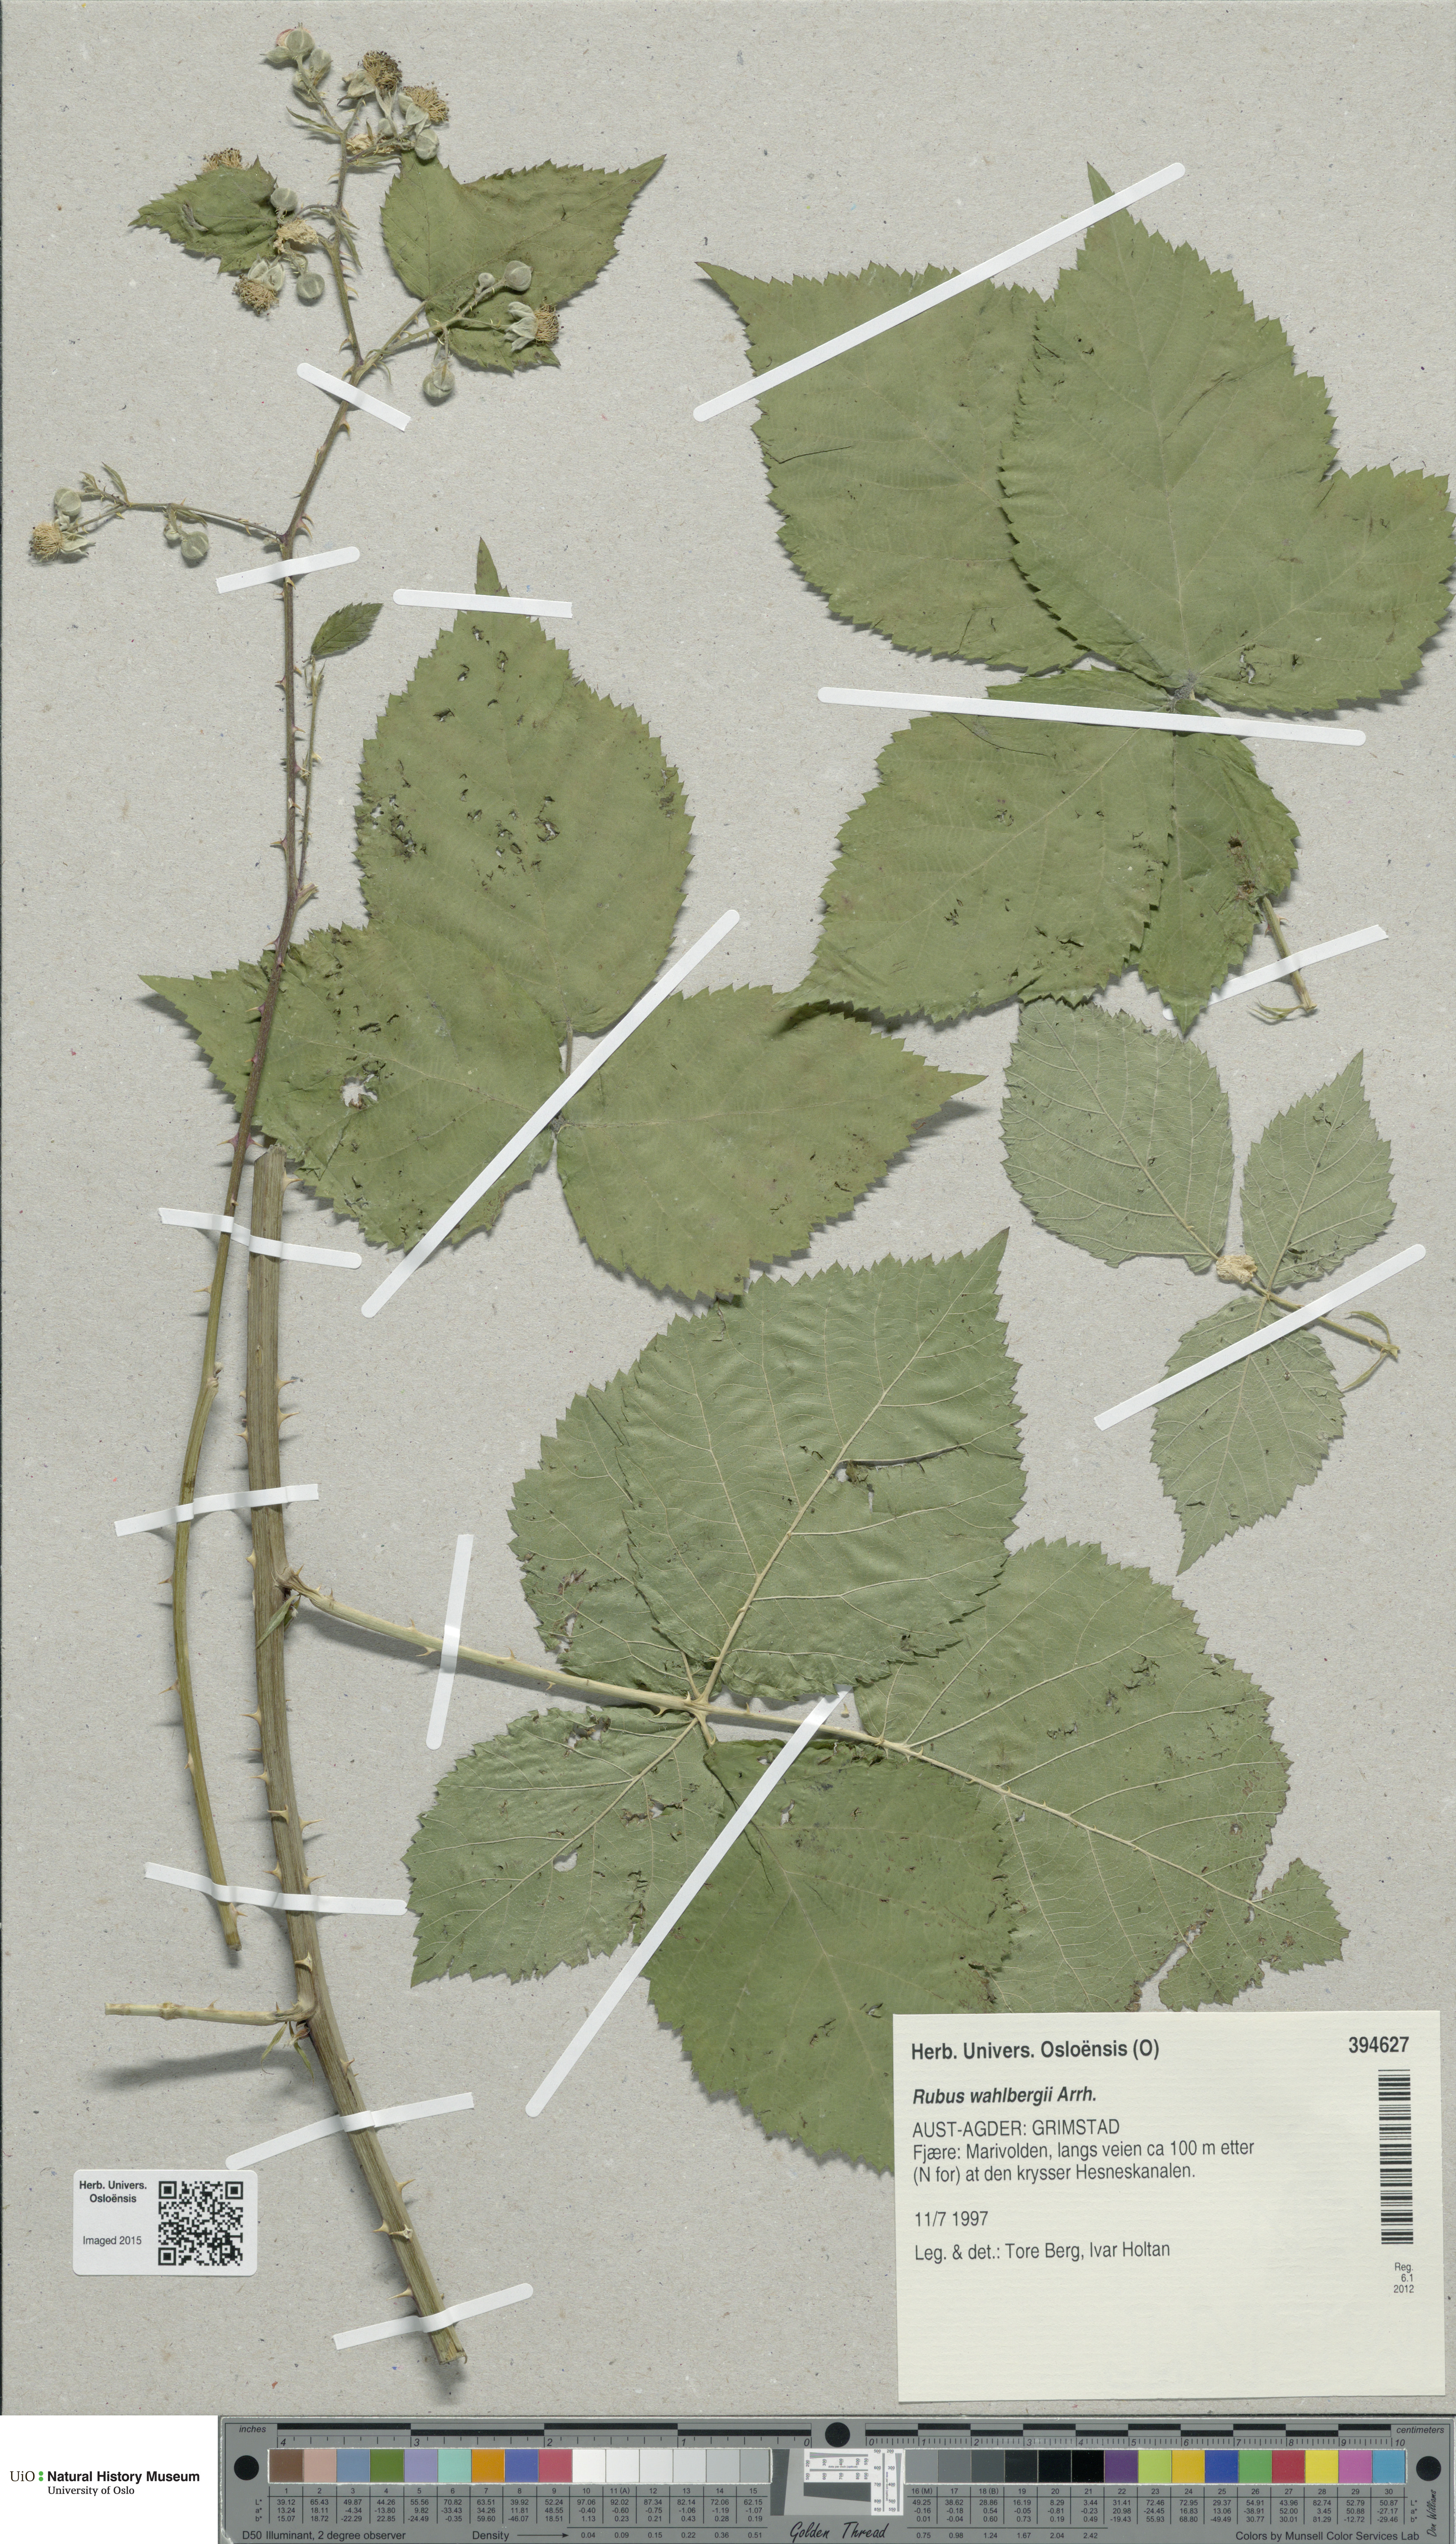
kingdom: Plantae
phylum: Tracheophyta
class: Magnoliopsida
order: Rosales
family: Rosaceae
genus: Rubus
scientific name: Rubus wahlbergii
